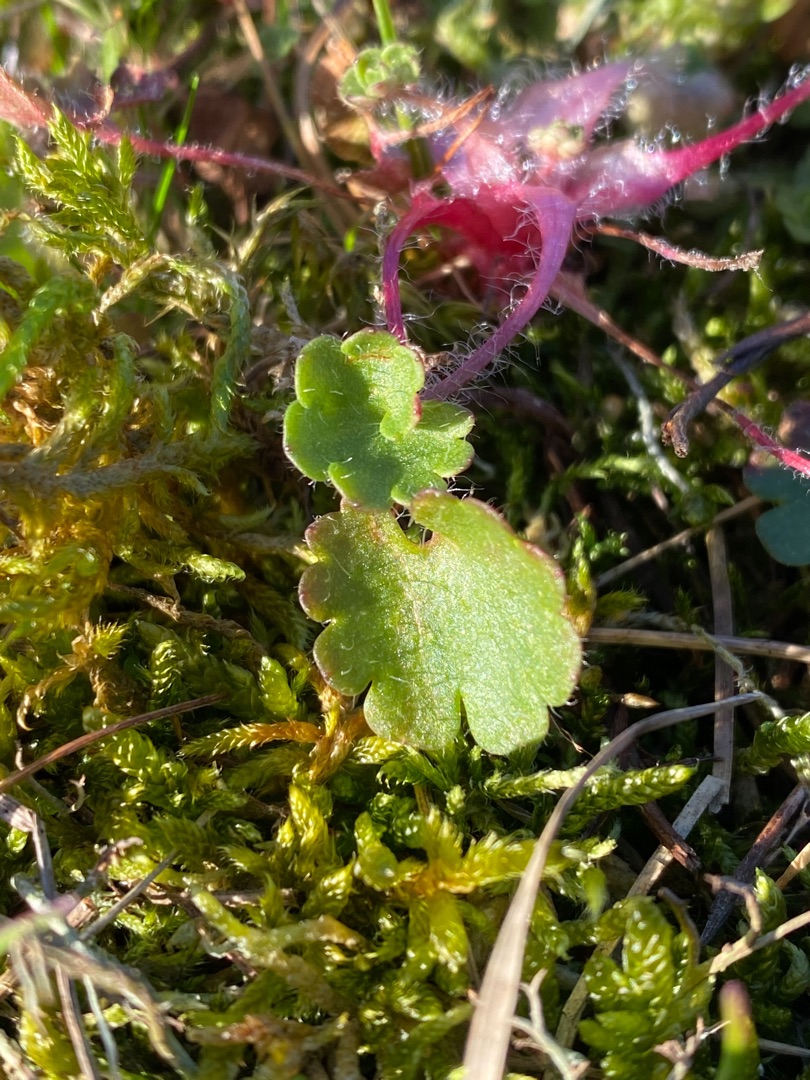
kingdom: Plantae
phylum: Tracheophyta
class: Magnoliopsida
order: Saxifragales
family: Saxifragaceae
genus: Saxifraga
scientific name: Saxifraga granulata
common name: Kornet stenbræk
